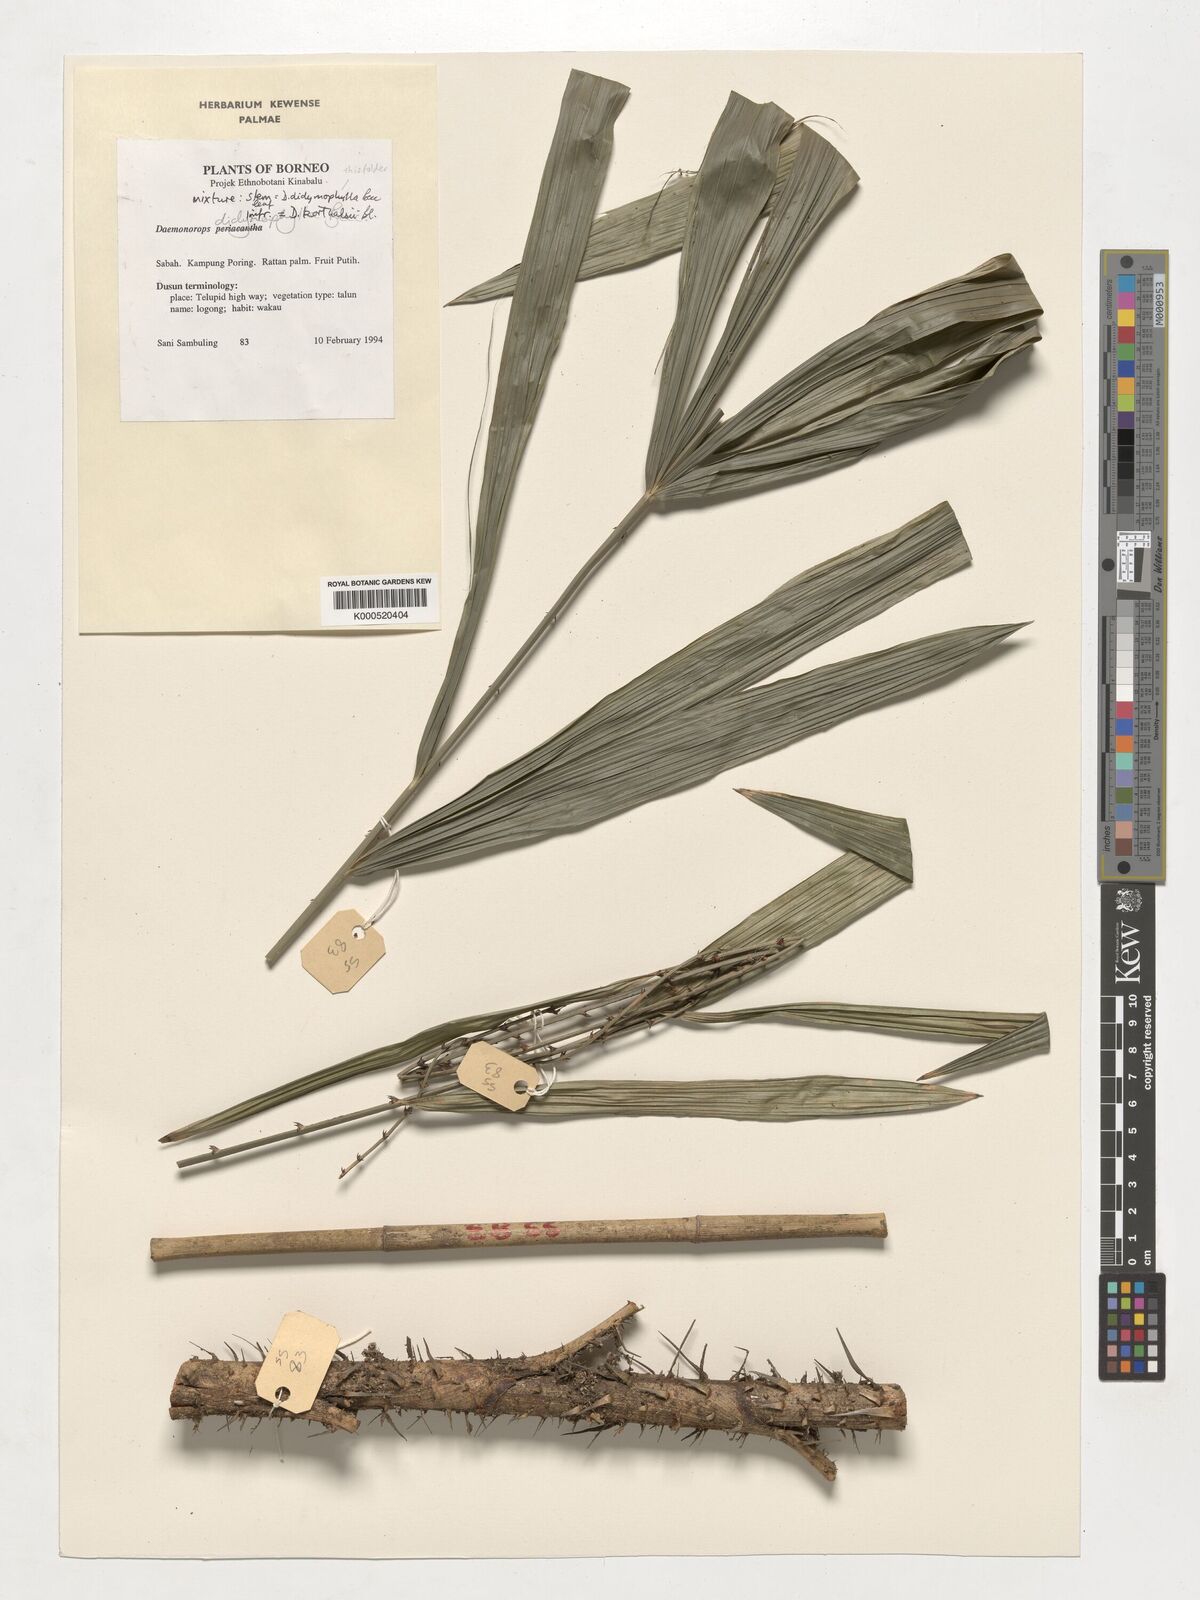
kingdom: Plantae
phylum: Tracheophyta
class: Liliopsida
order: Arecales
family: Arecaceae
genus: Calamus
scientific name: Calamus gracilipes
